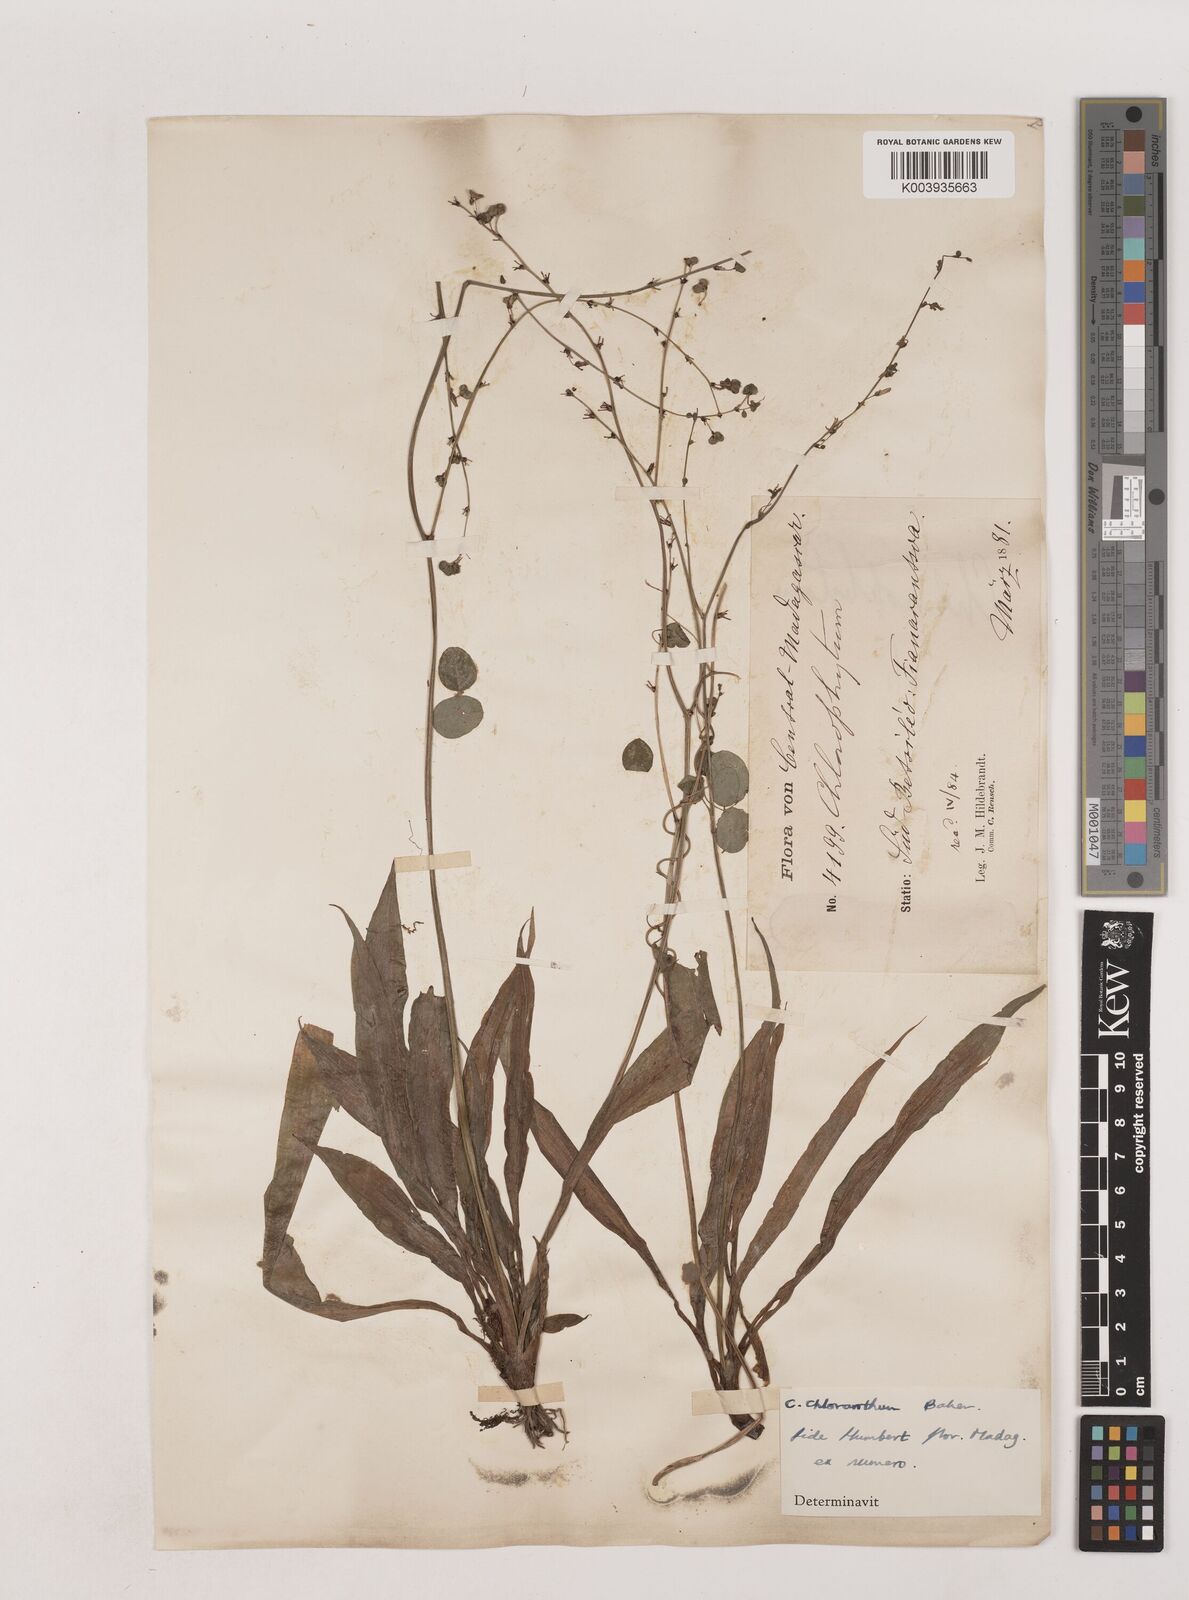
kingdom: Plantae
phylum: Tracheophyta
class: Liliopsida
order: Asparagales
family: Asparagaceae
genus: Chlorophytum
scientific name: Chlorophytum chloranthum
